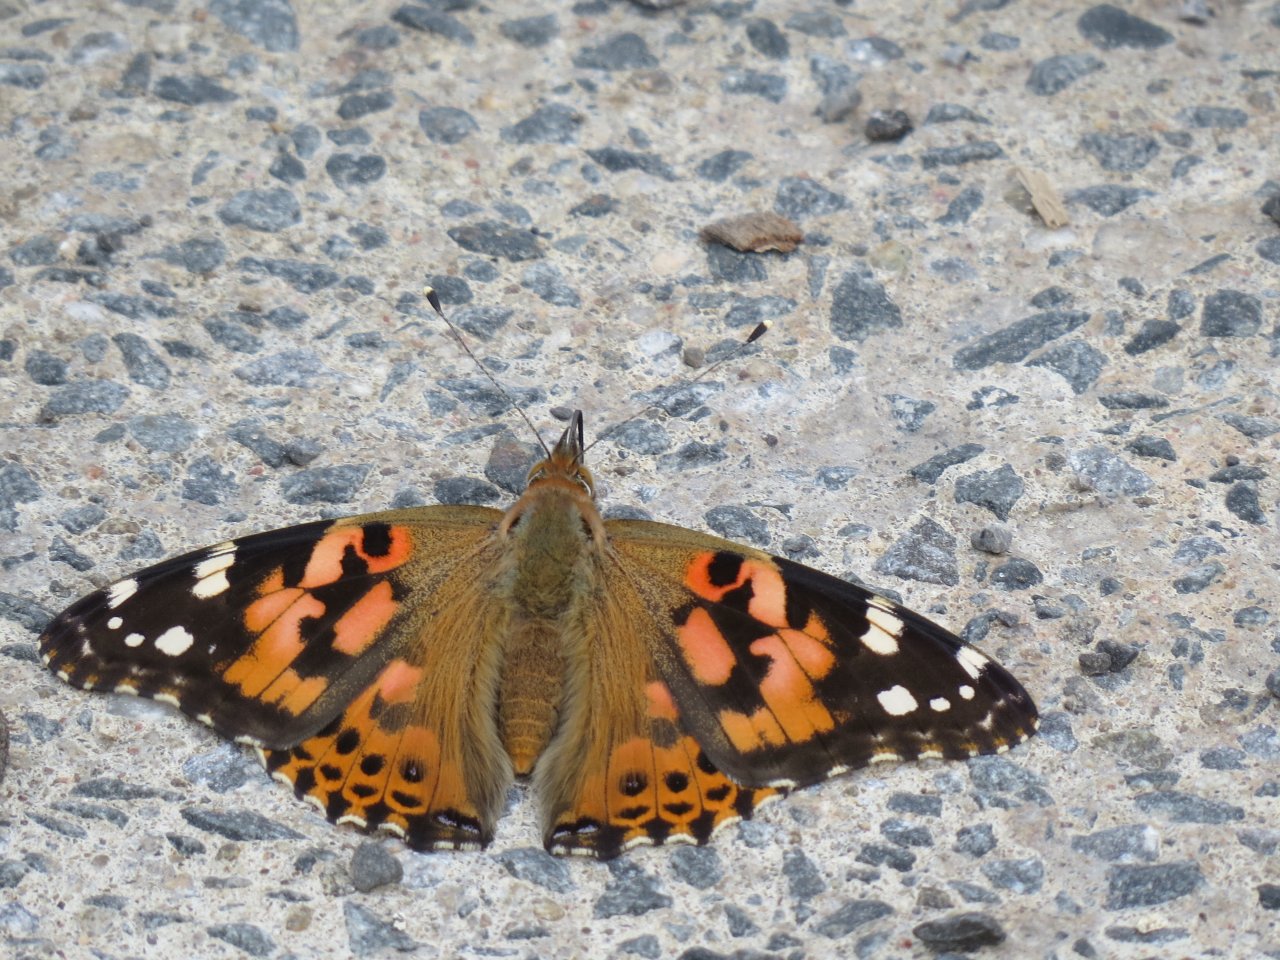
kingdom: Animalia
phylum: Arthropoda
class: Insecta
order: Lepidoptera
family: Nymphalidae
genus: Vanessa
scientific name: Vanessa cardui
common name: Painted Lady
